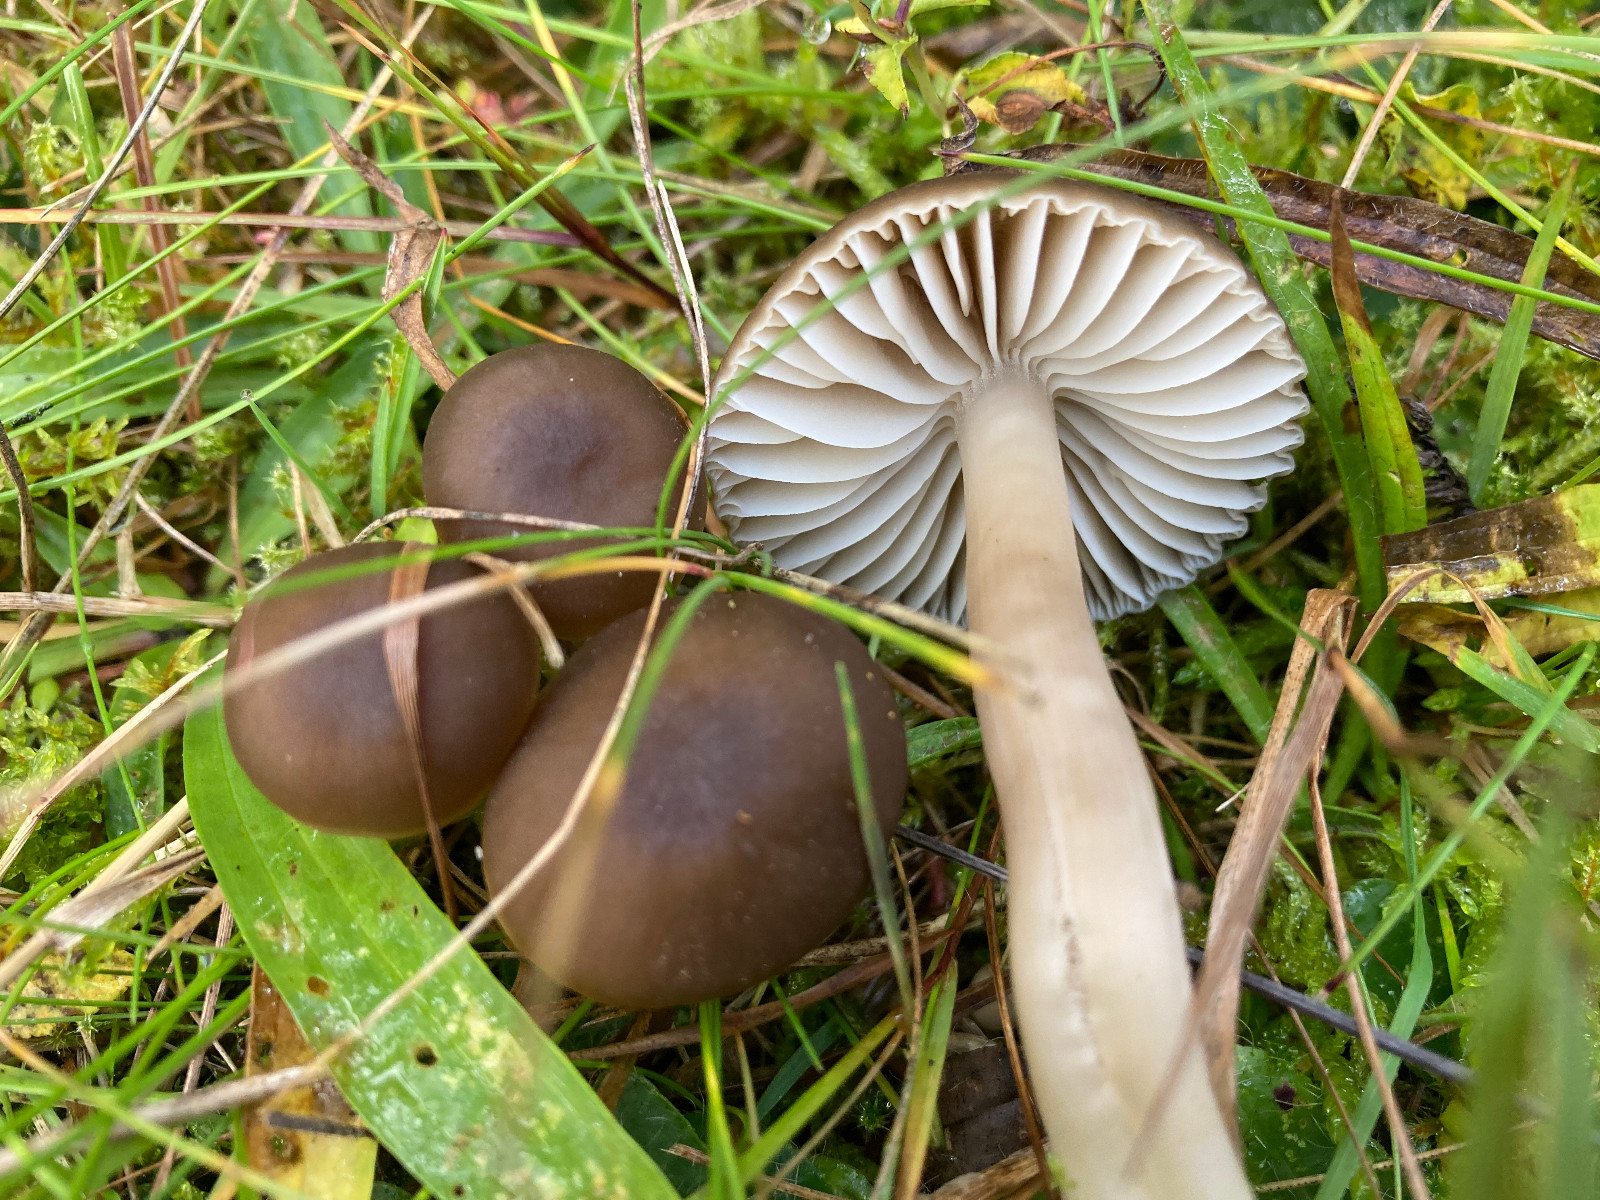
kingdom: Fungi
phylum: Basidiomycota
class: Agaricomycetes
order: Agaricales
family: Hygrophoraceae
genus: Neohygrocybe
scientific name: Neohygrocybe nitrata
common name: stinkende vokshat
